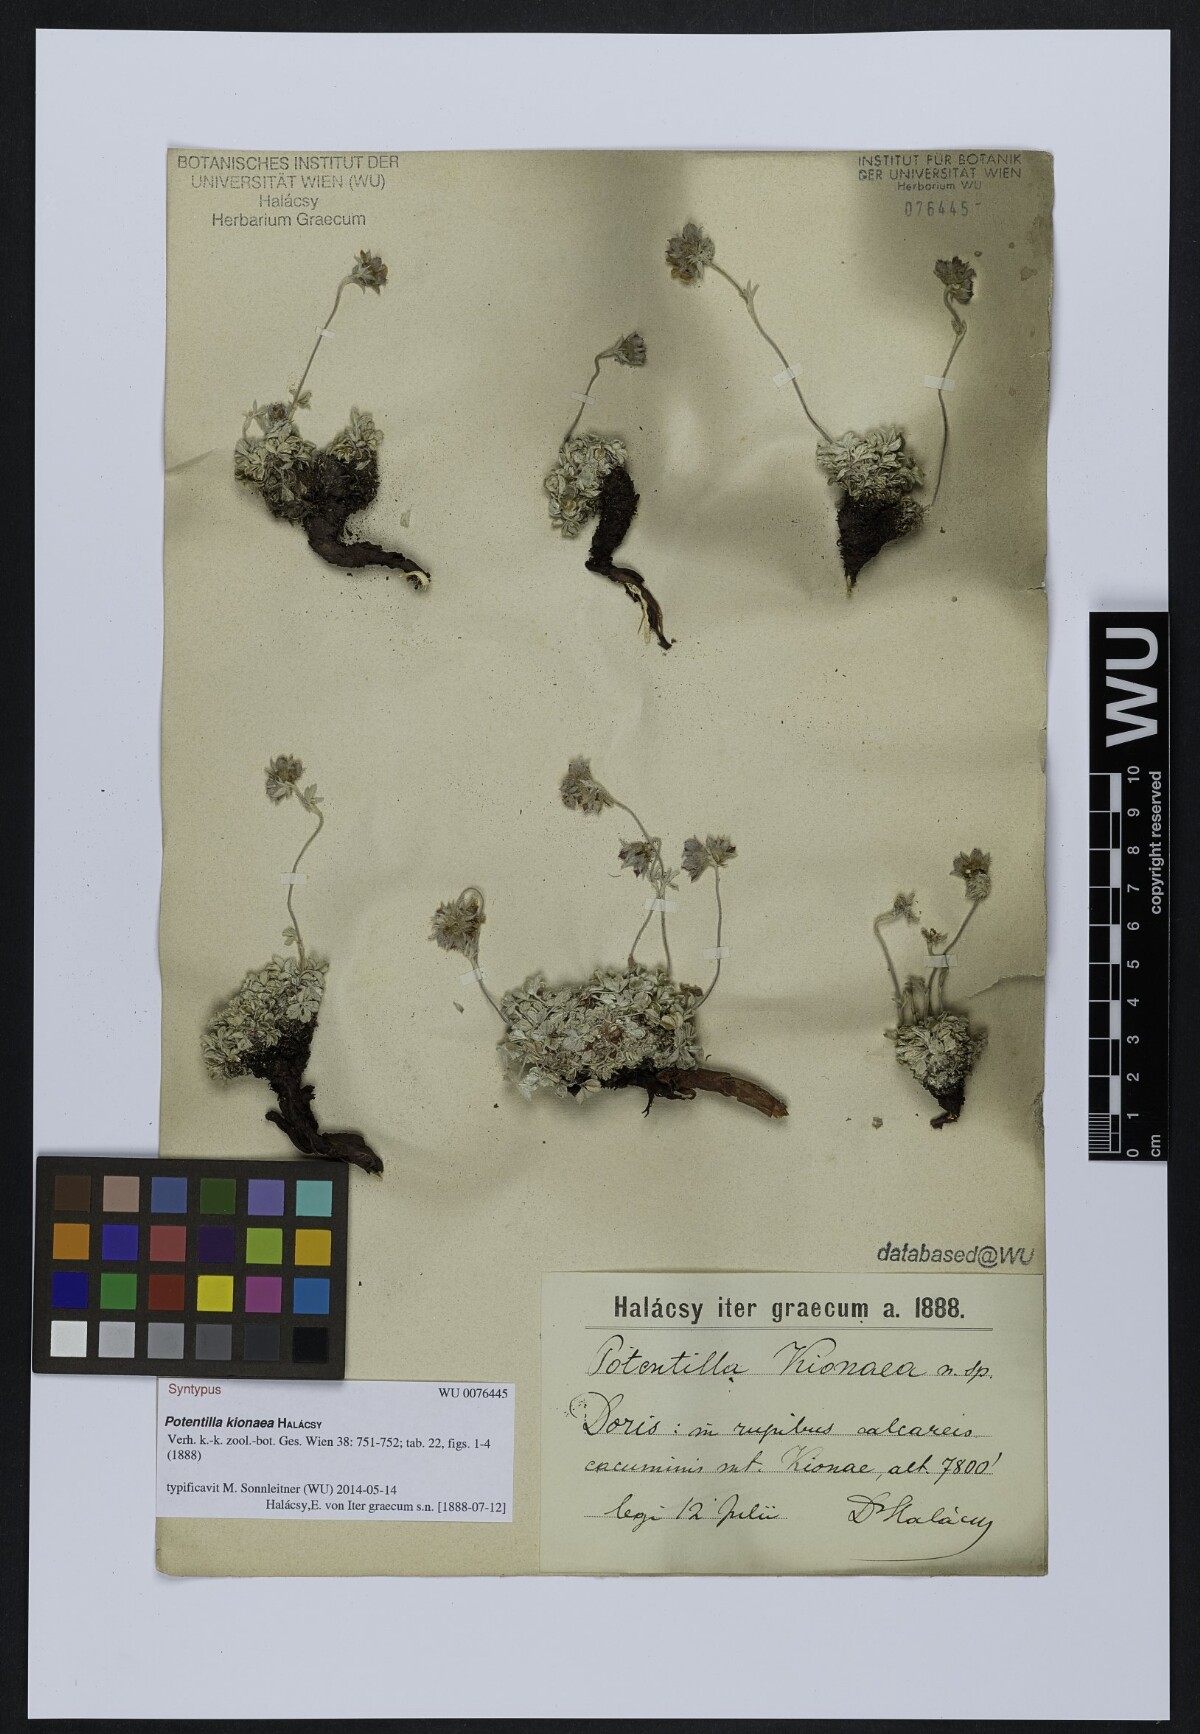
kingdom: Plantae
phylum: Tracheophyta
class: Magnoliopsida
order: Rosales
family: Rosaceae
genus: Potentilla
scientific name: Potentilla kionaea
